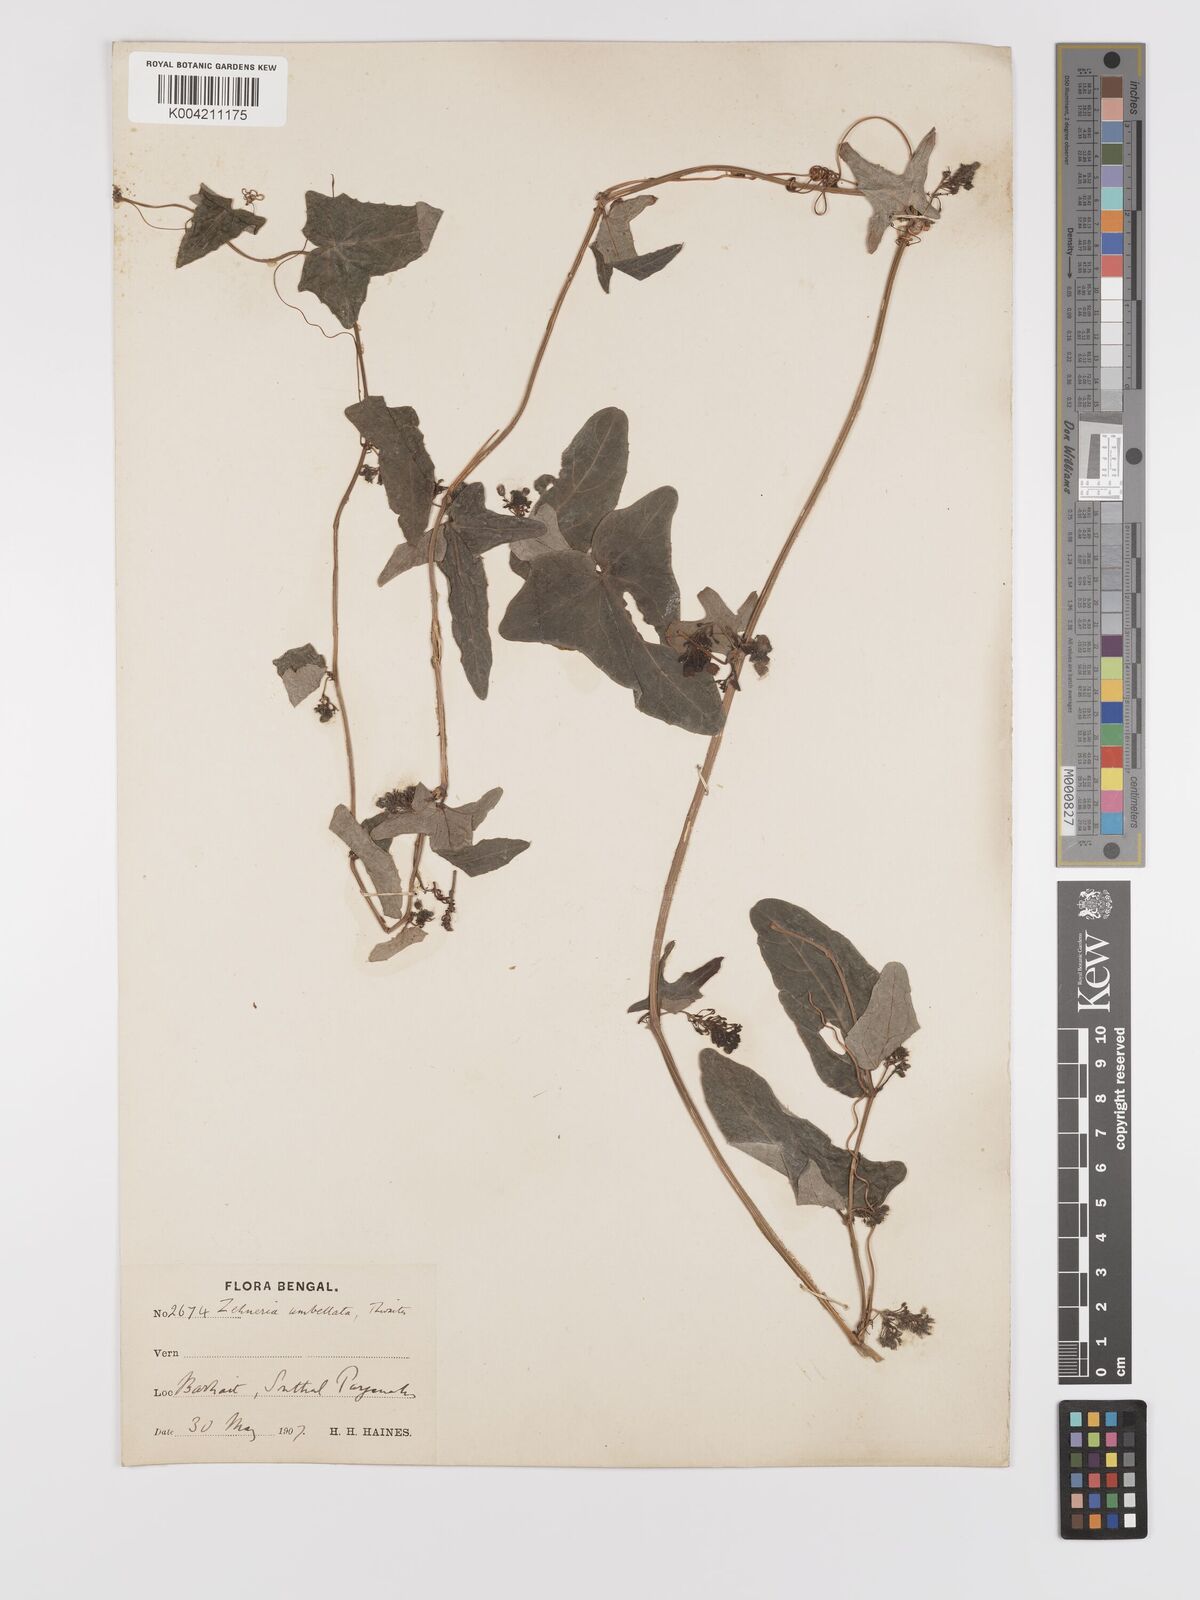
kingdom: Plantae
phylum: Tracheophyta
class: Magnoliopsida
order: Cucurbitales
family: Cucurbitaceae
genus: Solena
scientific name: Solena amplexicaulis
